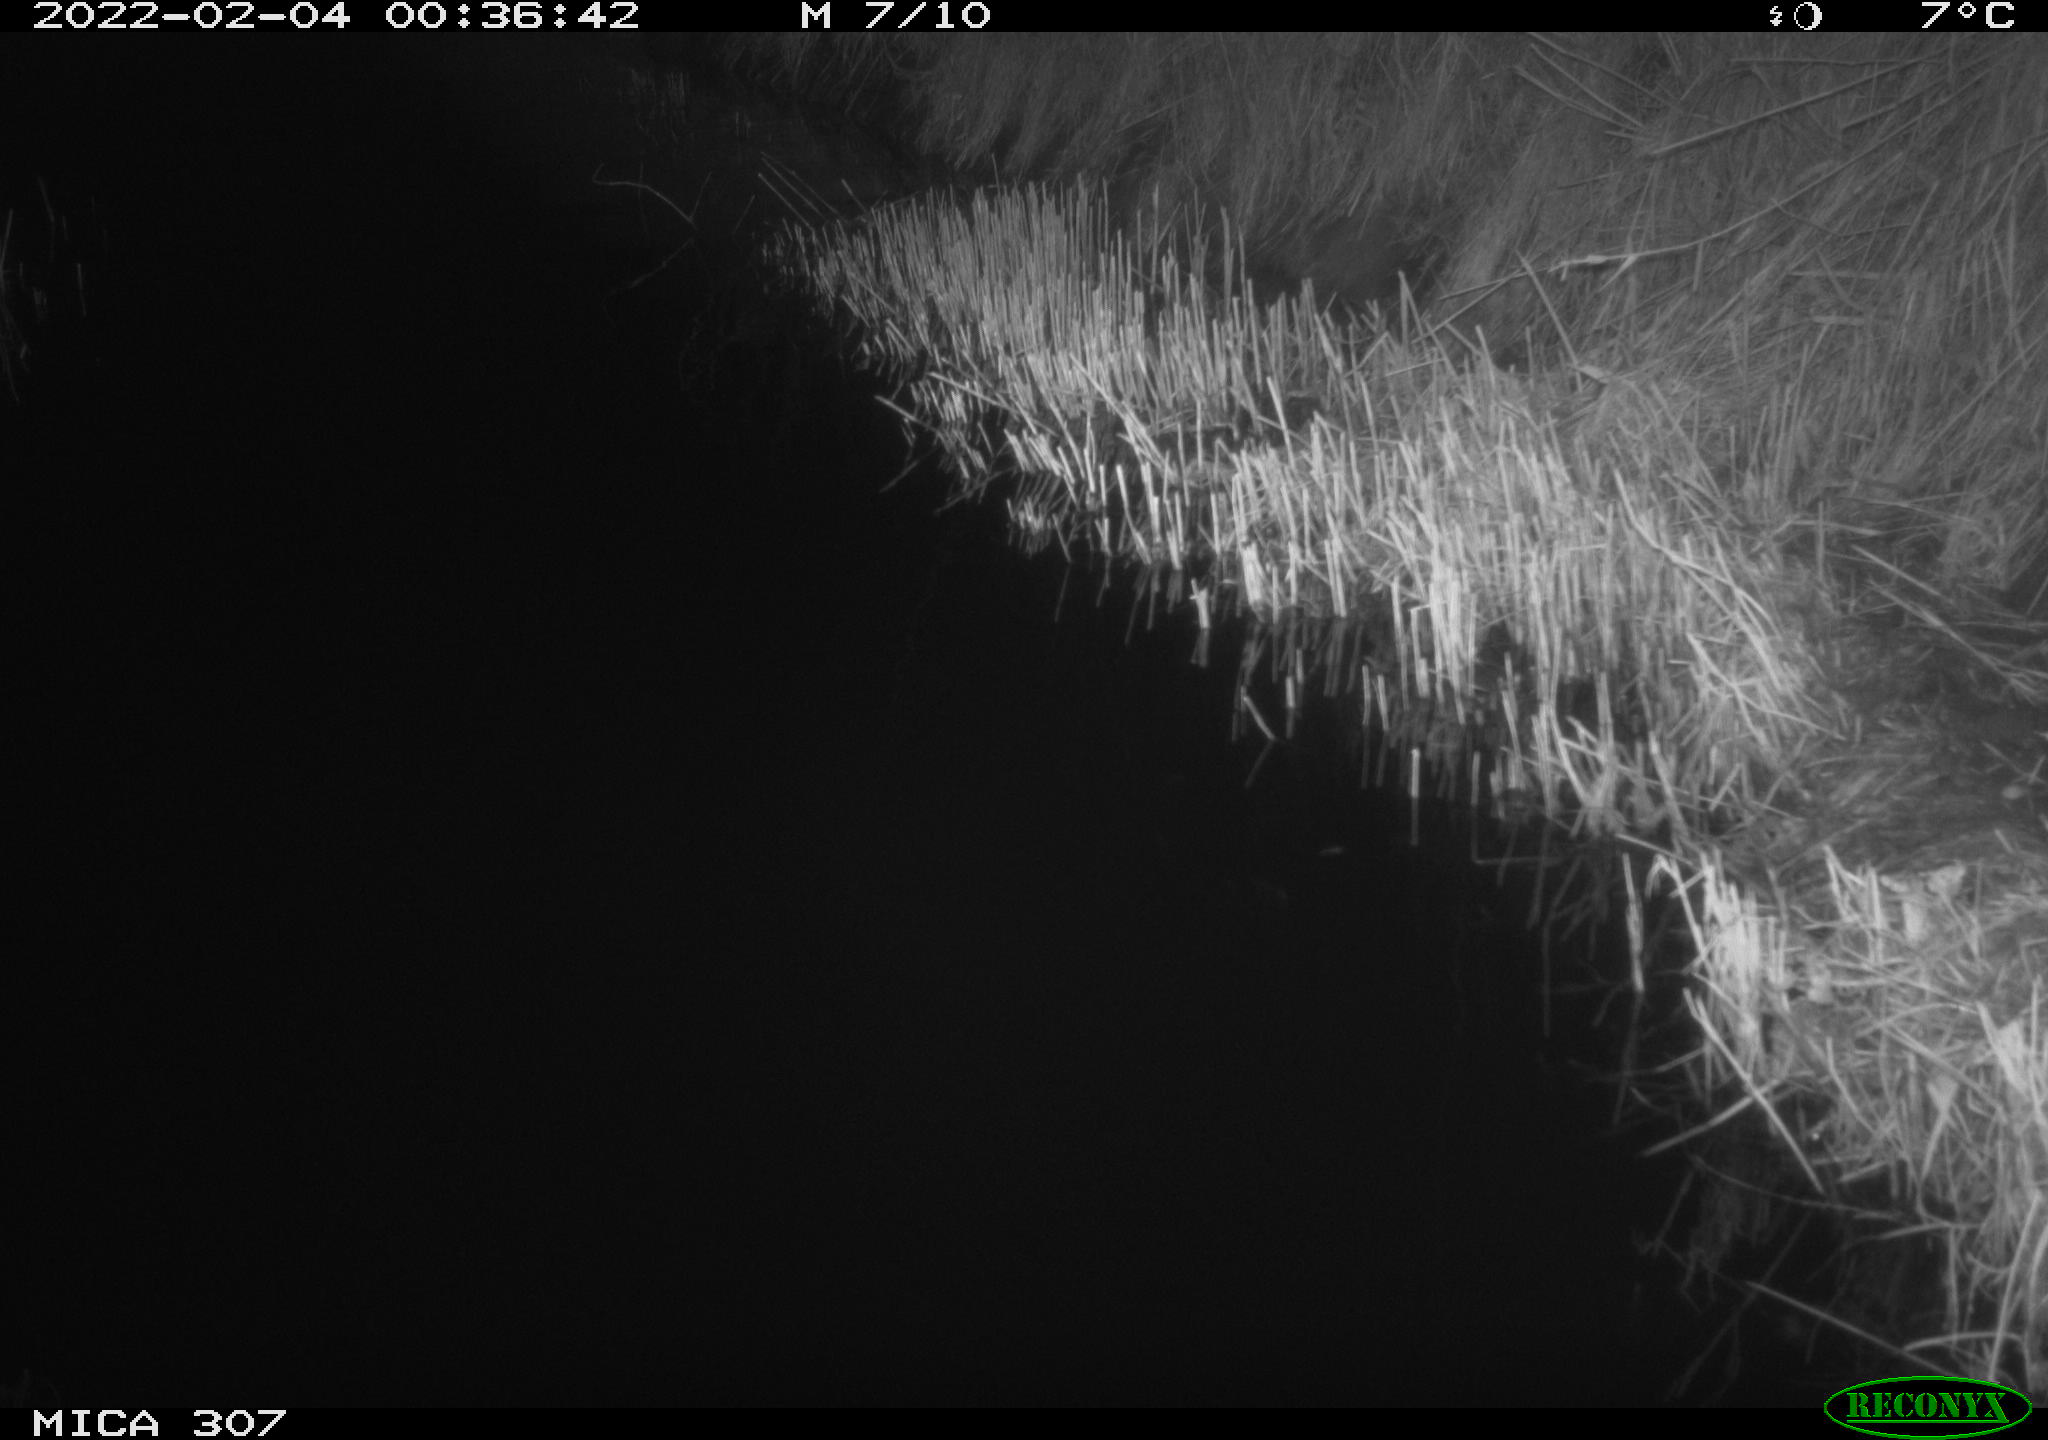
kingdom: Animalia
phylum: Chordata
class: Mammalia
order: Rodentia
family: Muridae
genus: Rattus
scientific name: Rattus norvegicus
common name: Brown rat
